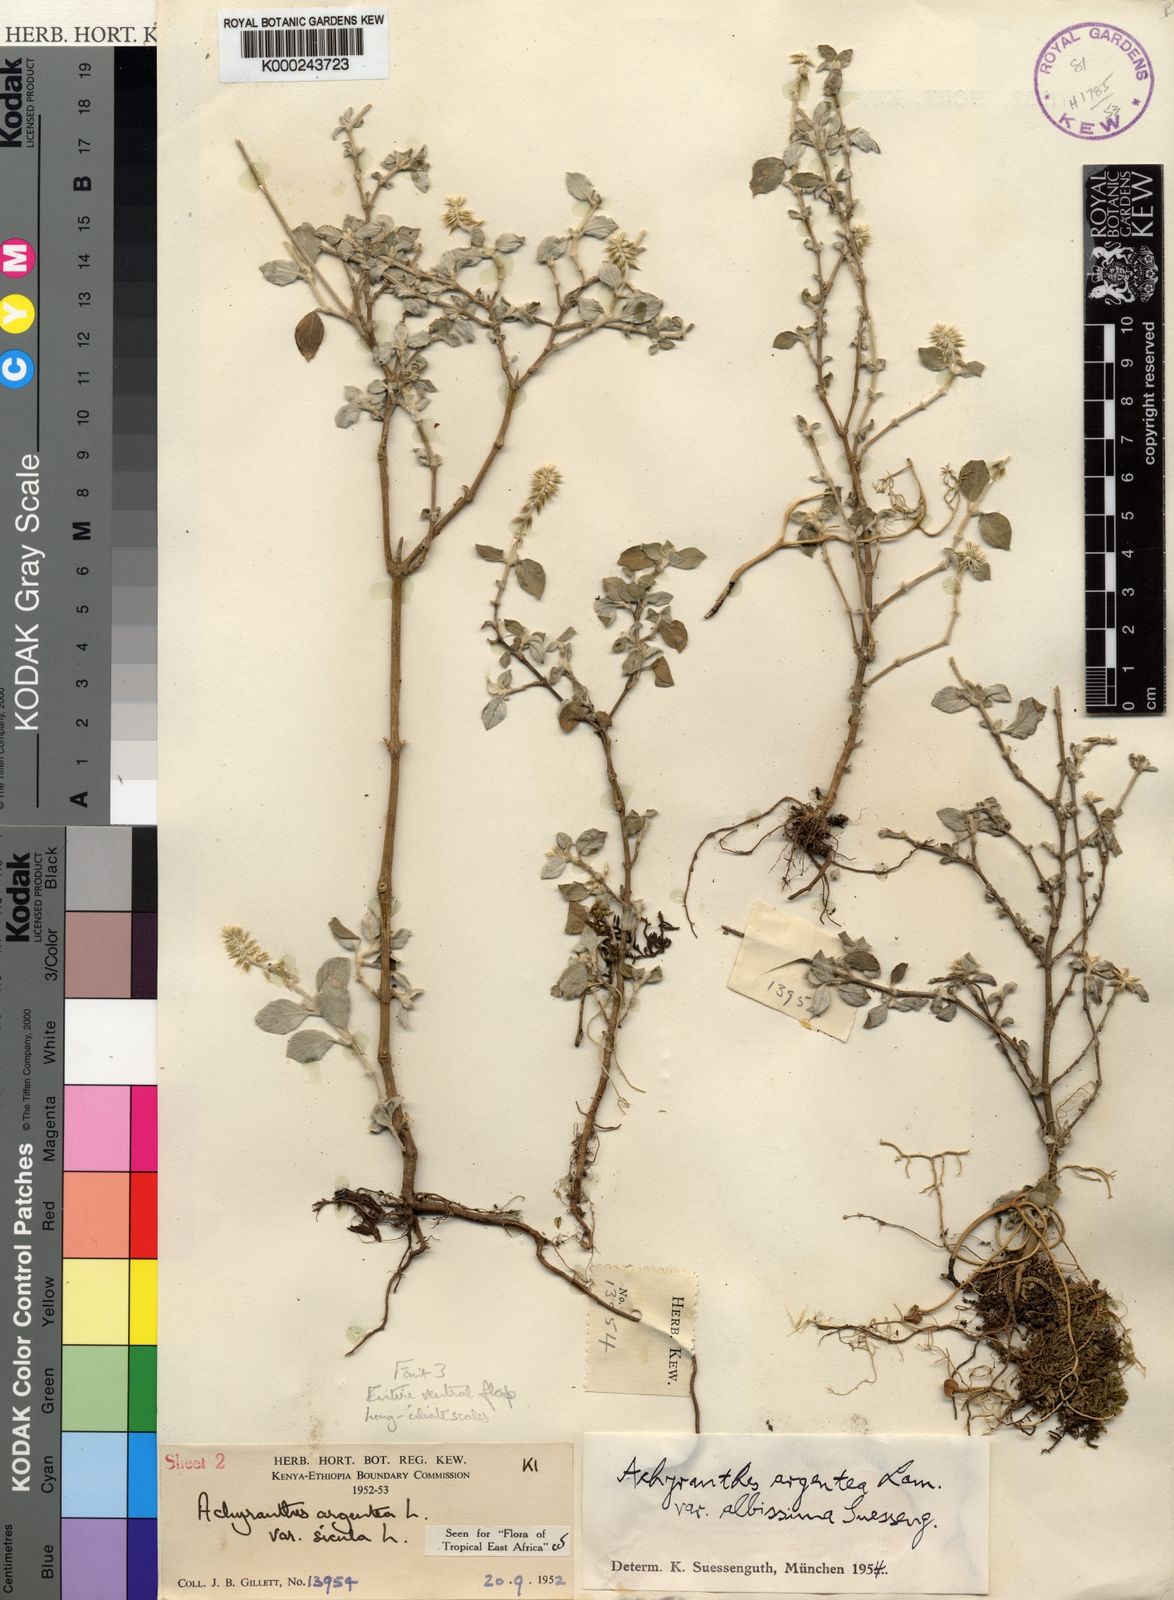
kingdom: Plantae
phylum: Tracheophyta
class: Magnoliopsida
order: Caryophyllales
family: Amaranthaceae
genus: Achyranthes
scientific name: Achyranthes sicula
